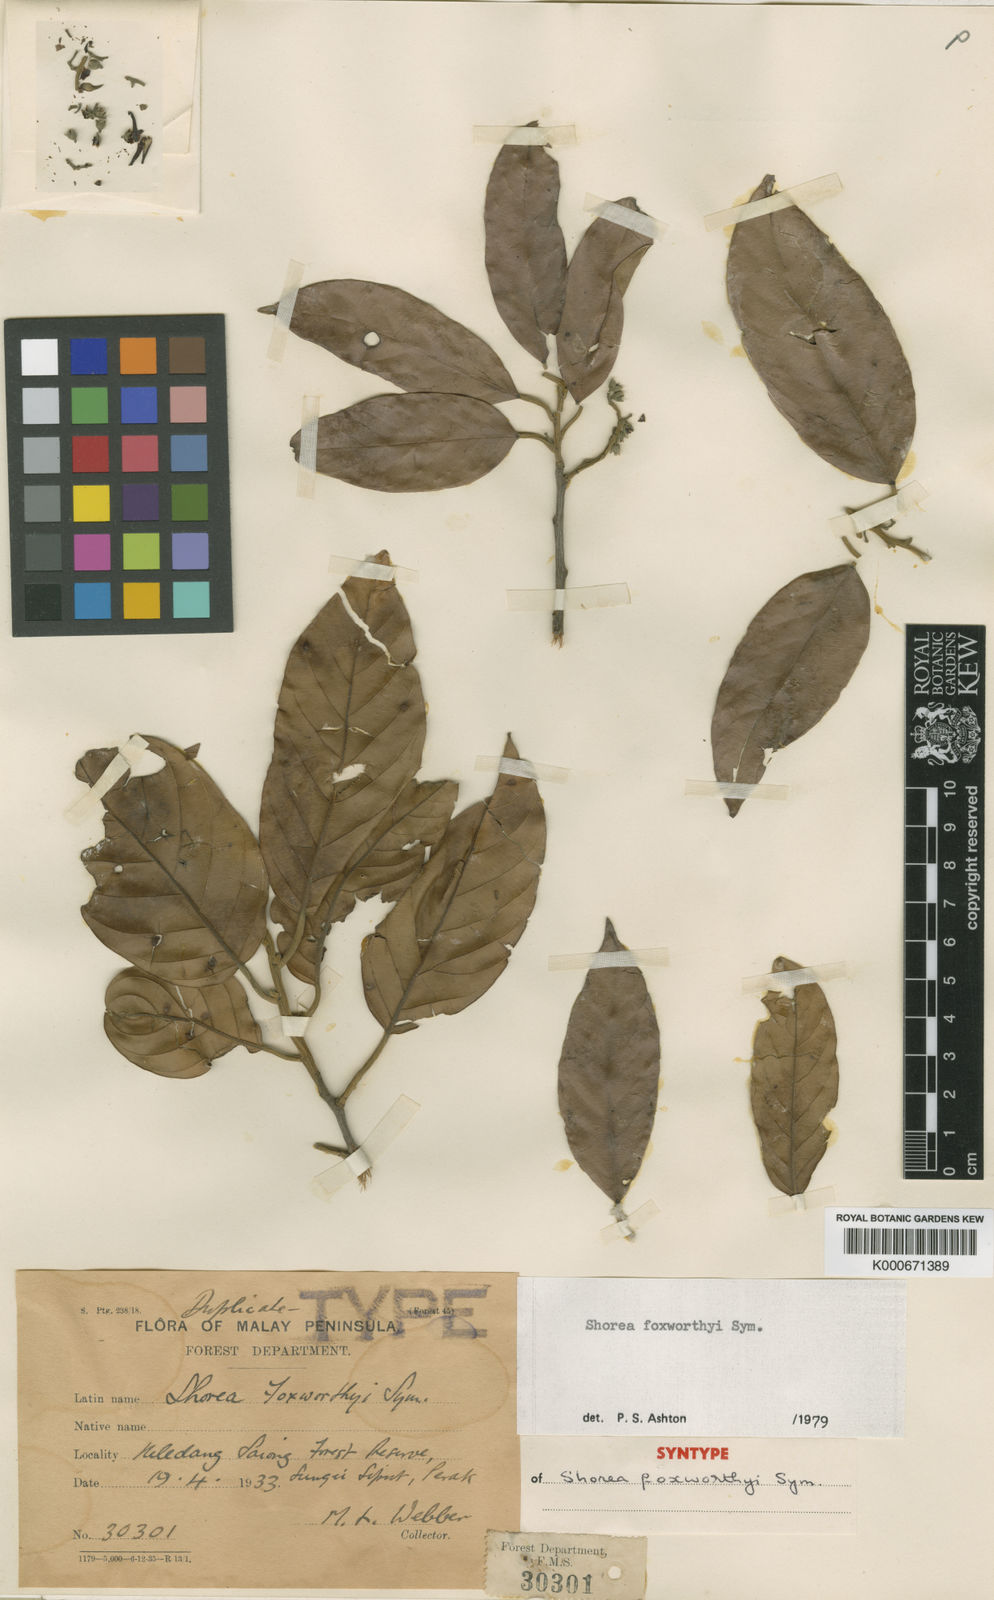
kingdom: Plantae
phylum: Tracheophyta
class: Magnoliopsida
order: Malvales
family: Dipterocarpaceae
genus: Shorea
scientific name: Shorea foxworthyi
